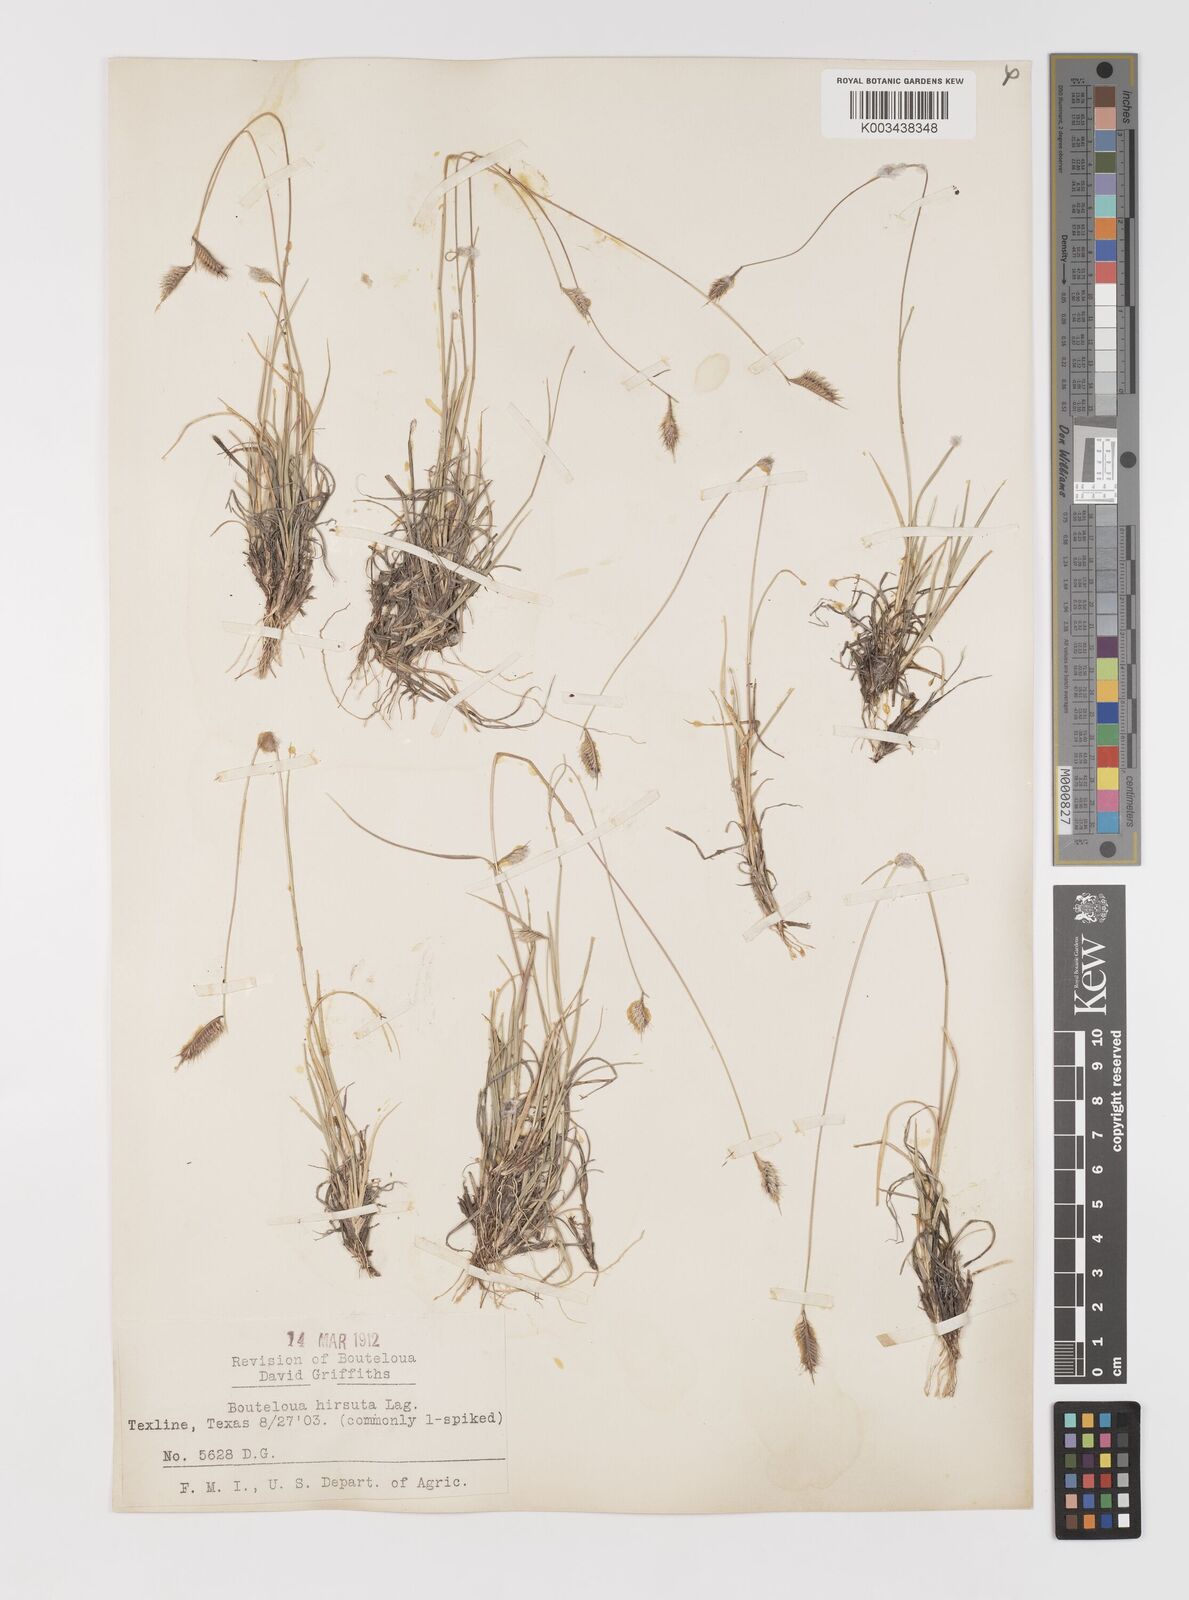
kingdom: Plantae
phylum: Tracheophyta
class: Liliopsida
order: Poales
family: Poaceae
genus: Bouteloua
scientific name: Bouteloua hirsuta
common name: Hairy grama
